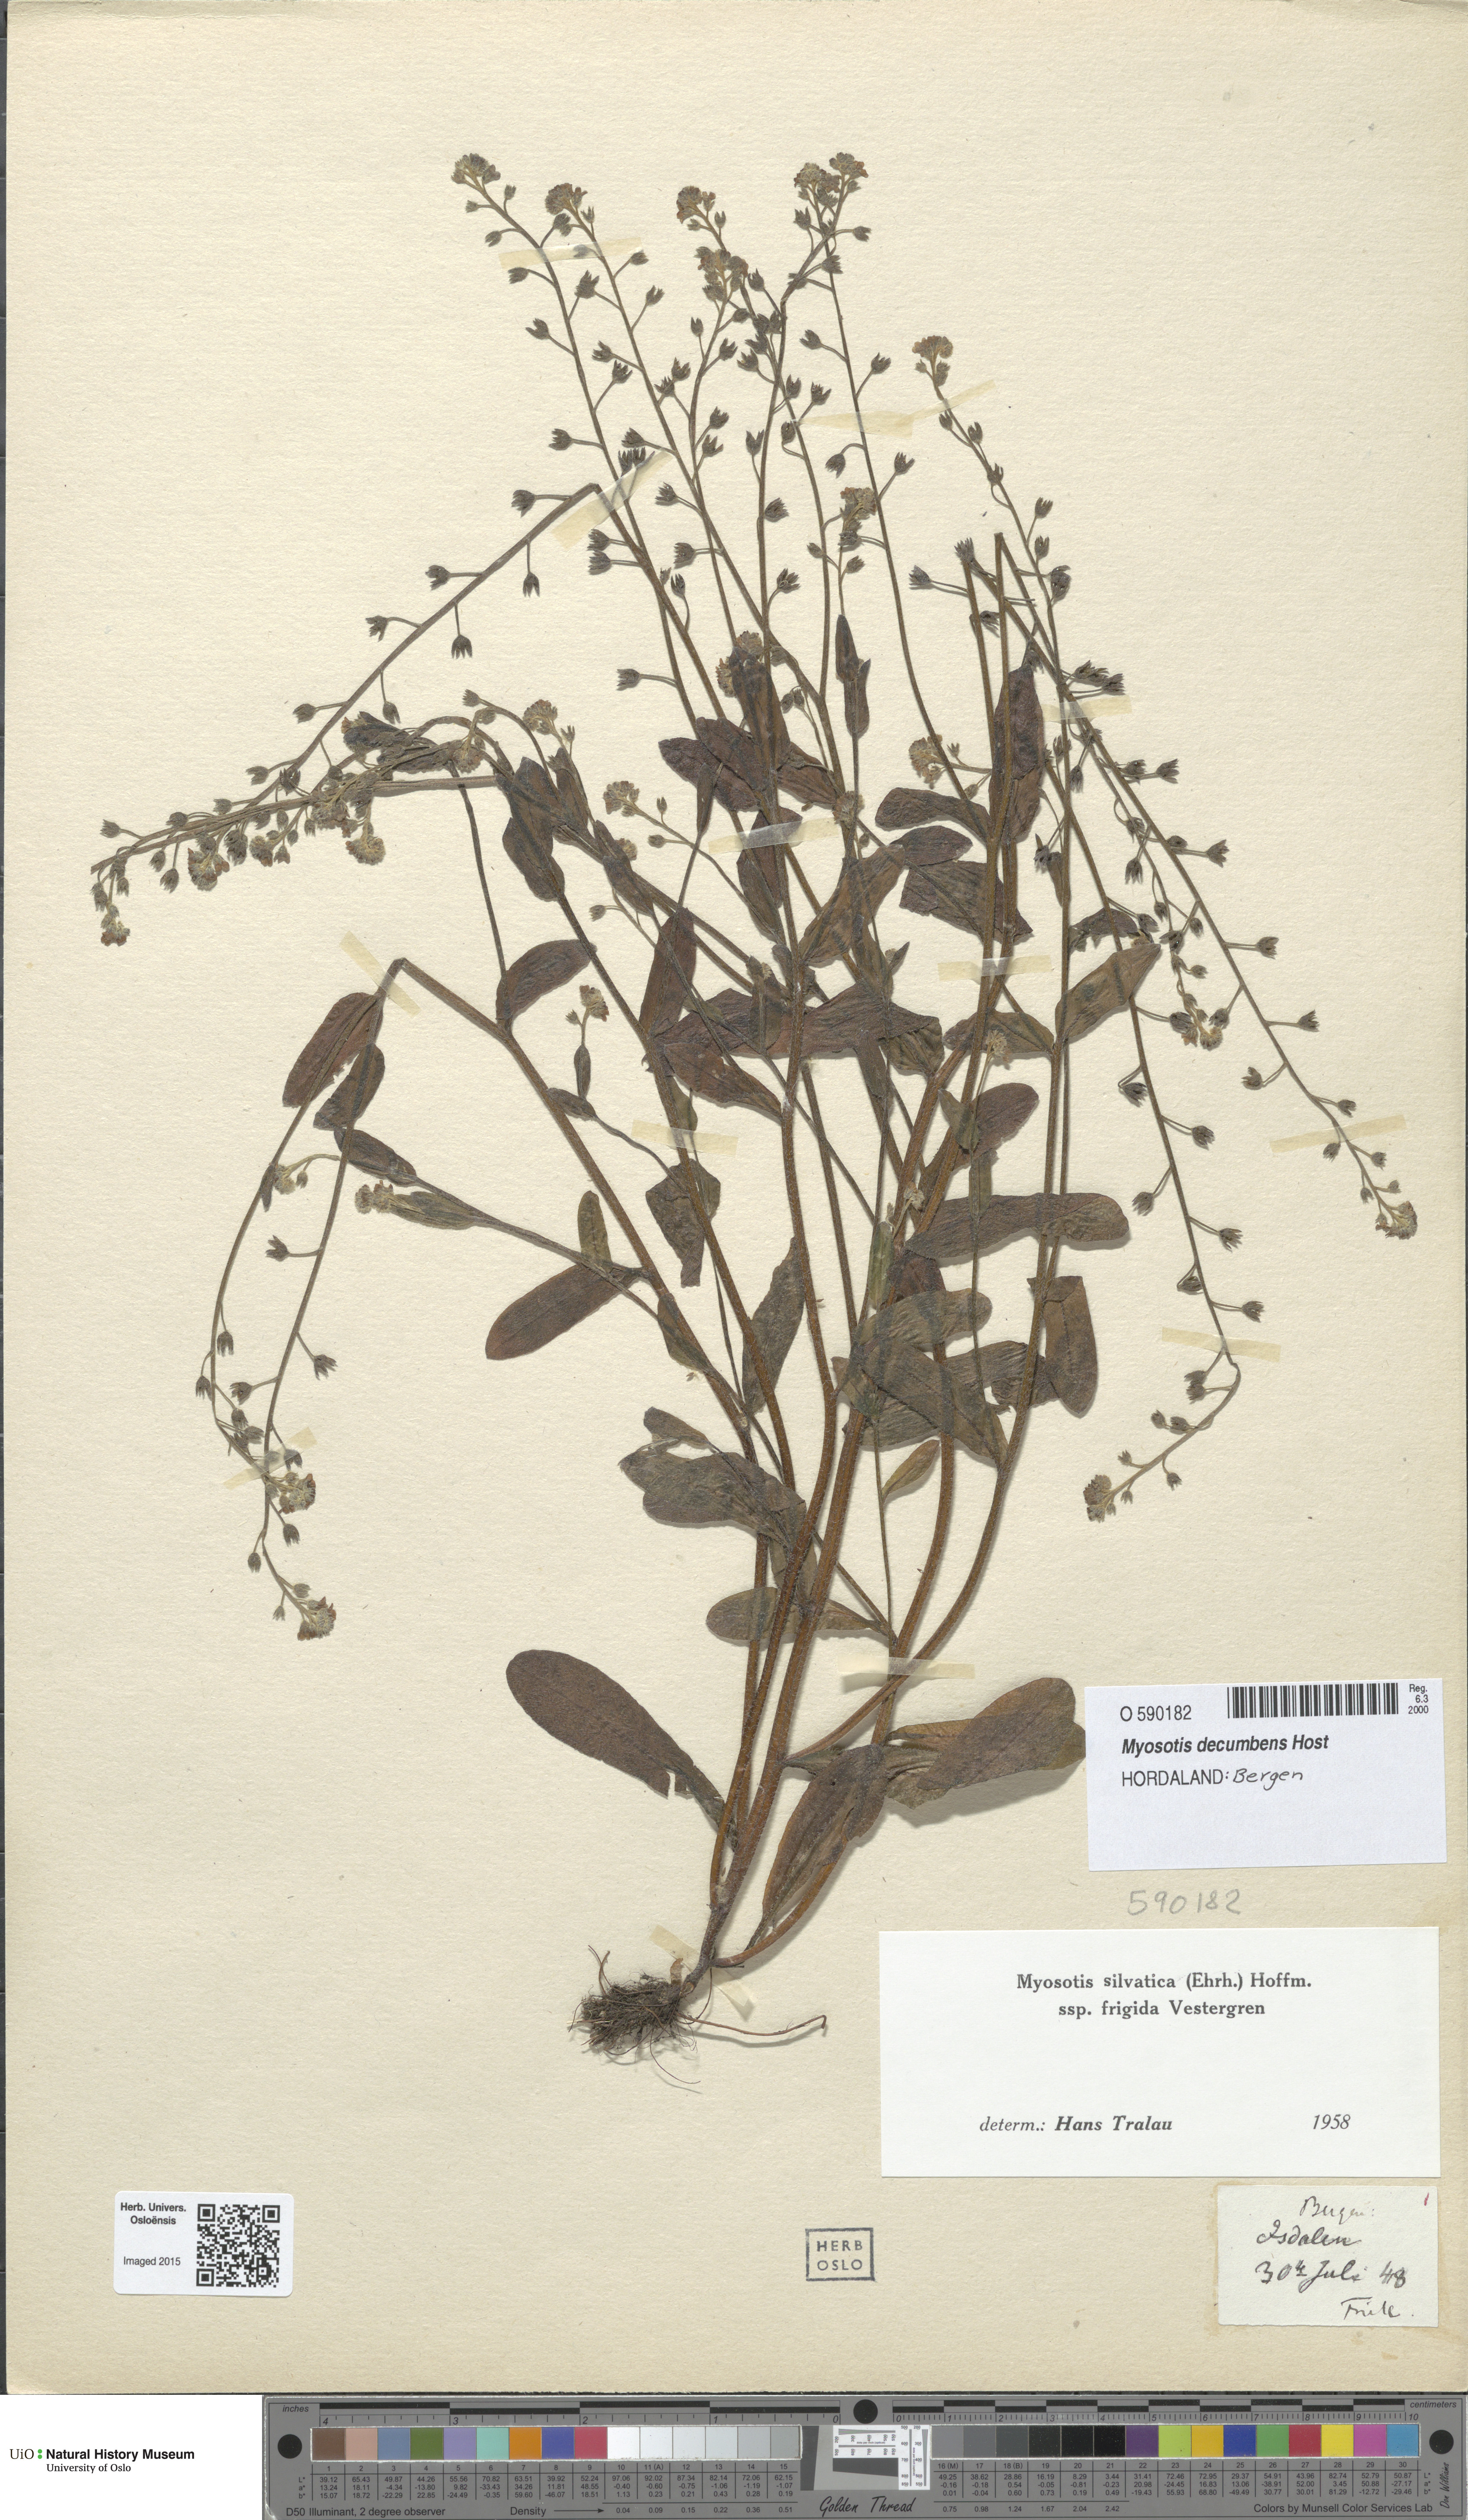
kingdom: Plantae
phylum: Tracheophyta
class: Magnoliopsida
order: Boraginales
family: Boraginaceae
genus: Myosotis
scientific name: Myosotis decumbens
